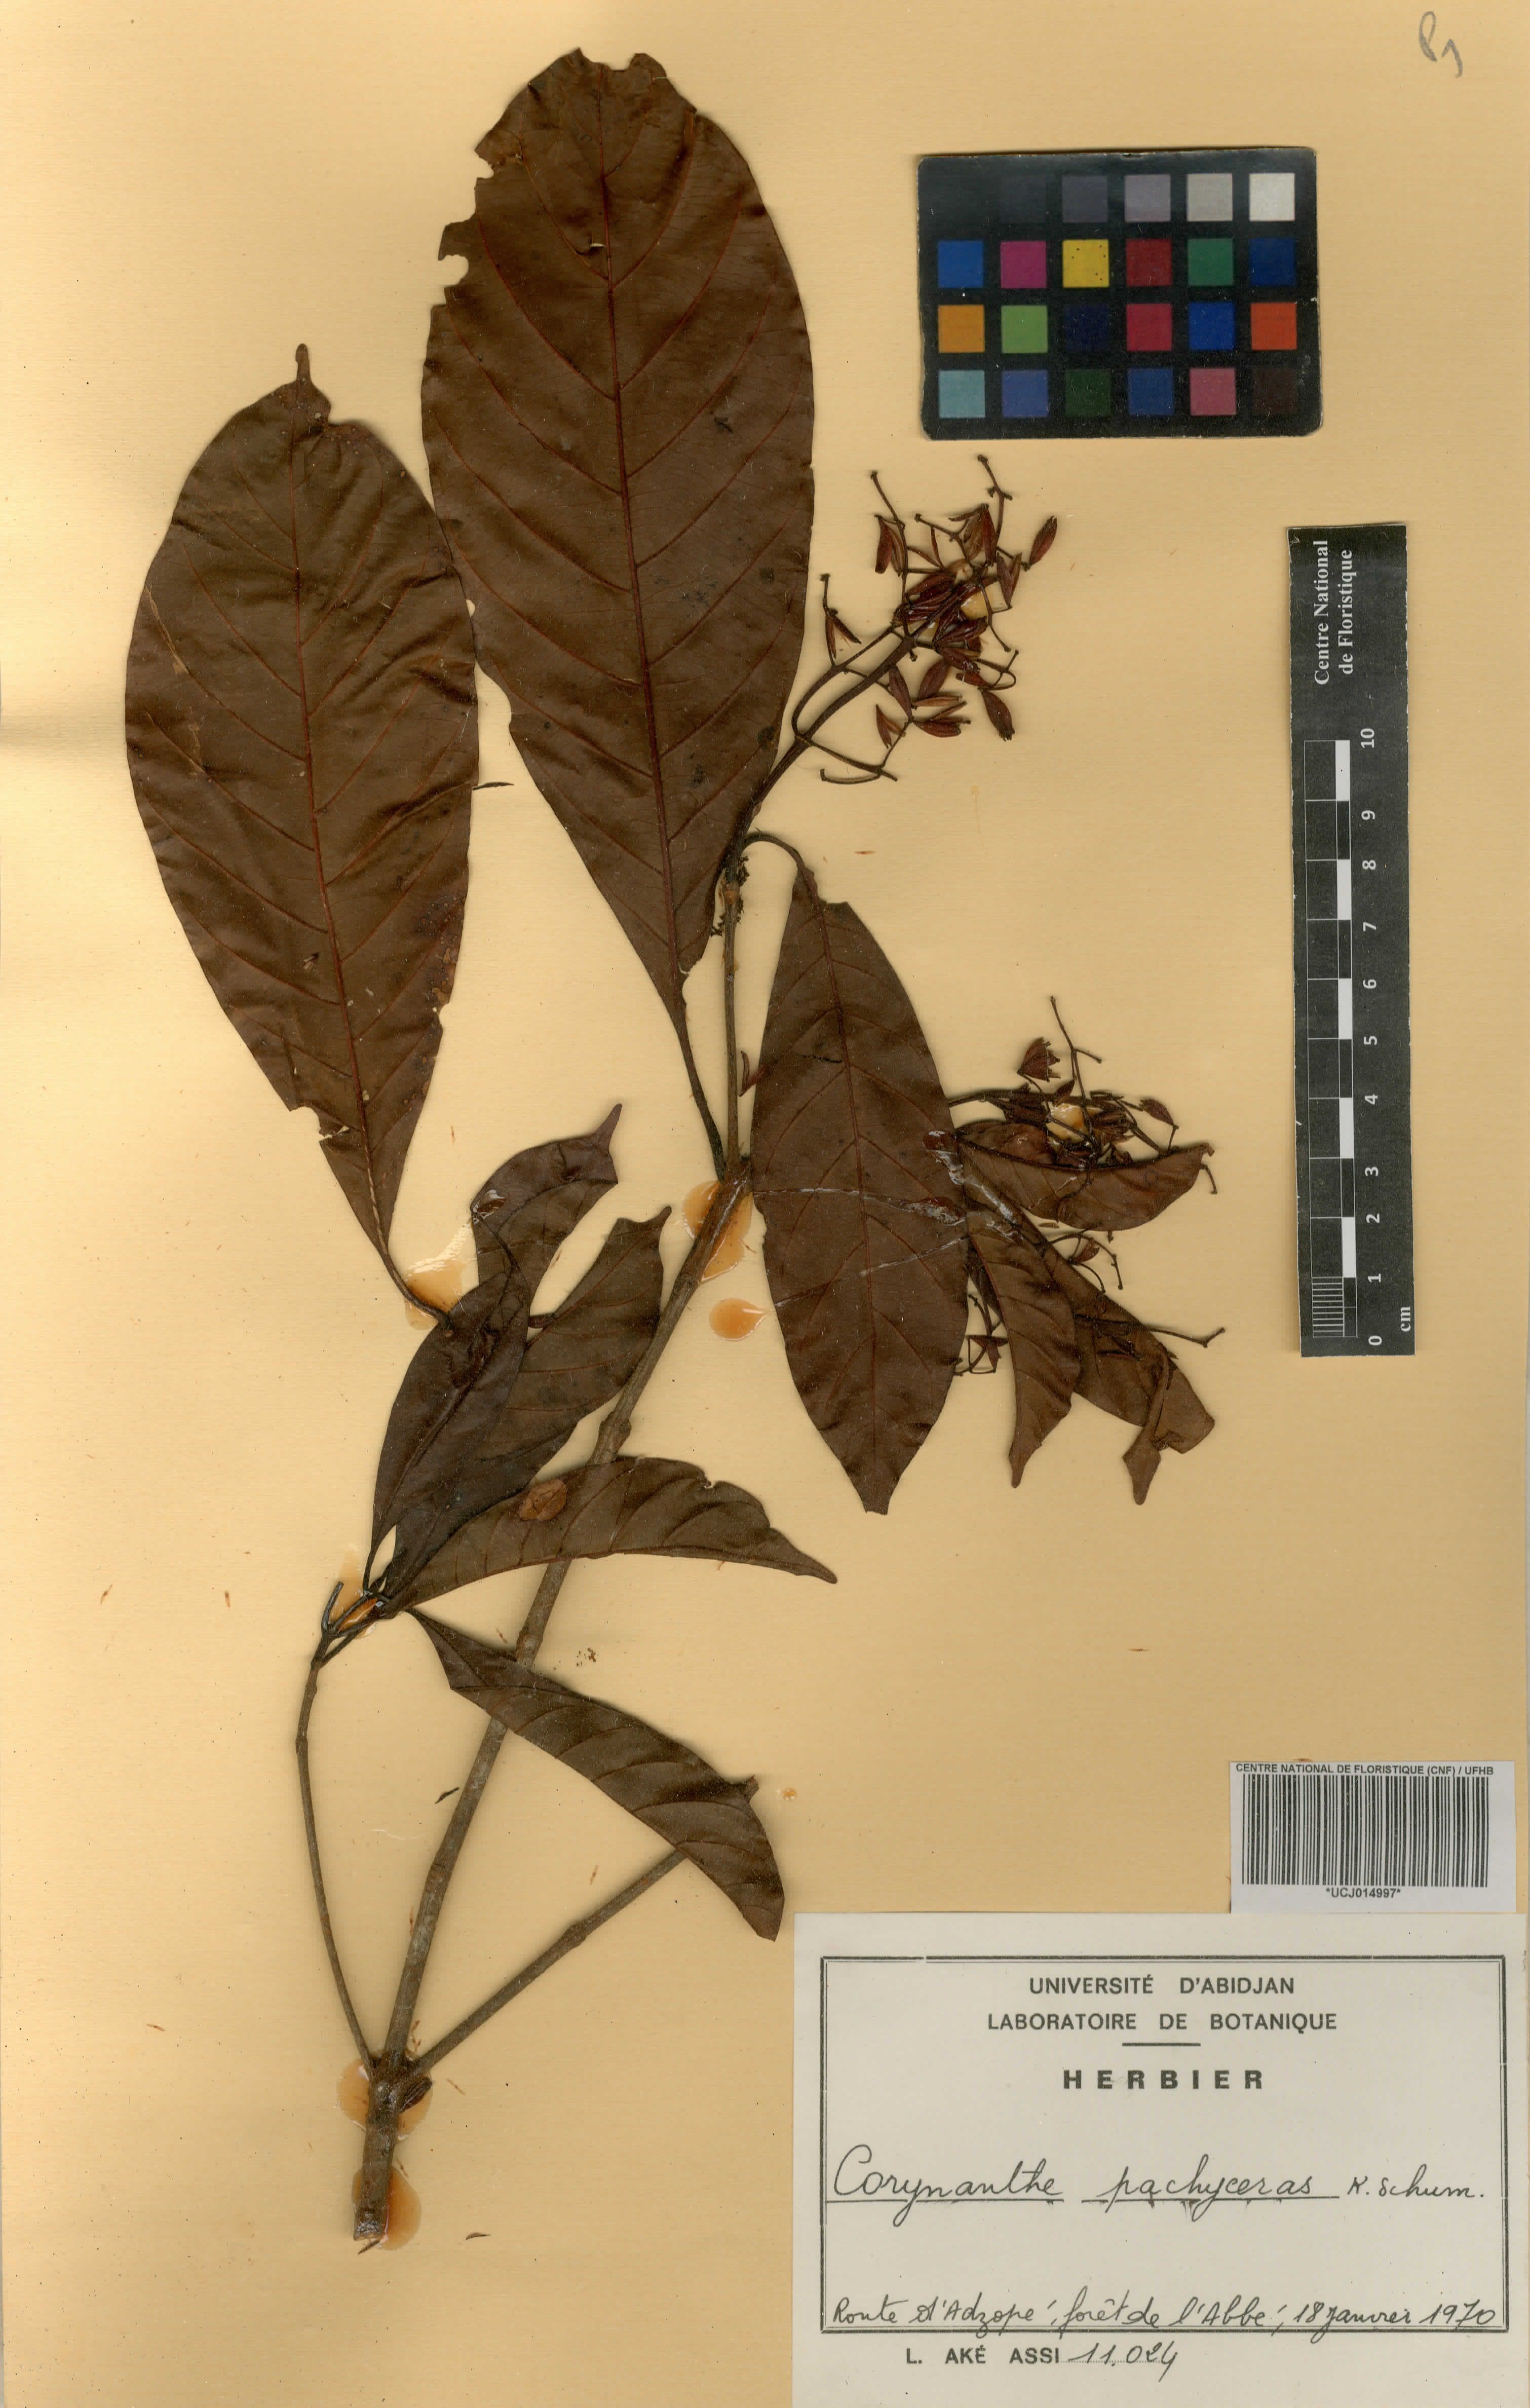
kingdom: Plantae
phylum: Tracheophyta
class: Magnoliopsida
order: Gentianales
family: Rubiaceae
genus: Corynanthe
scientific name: Corynanthe pachyceras
